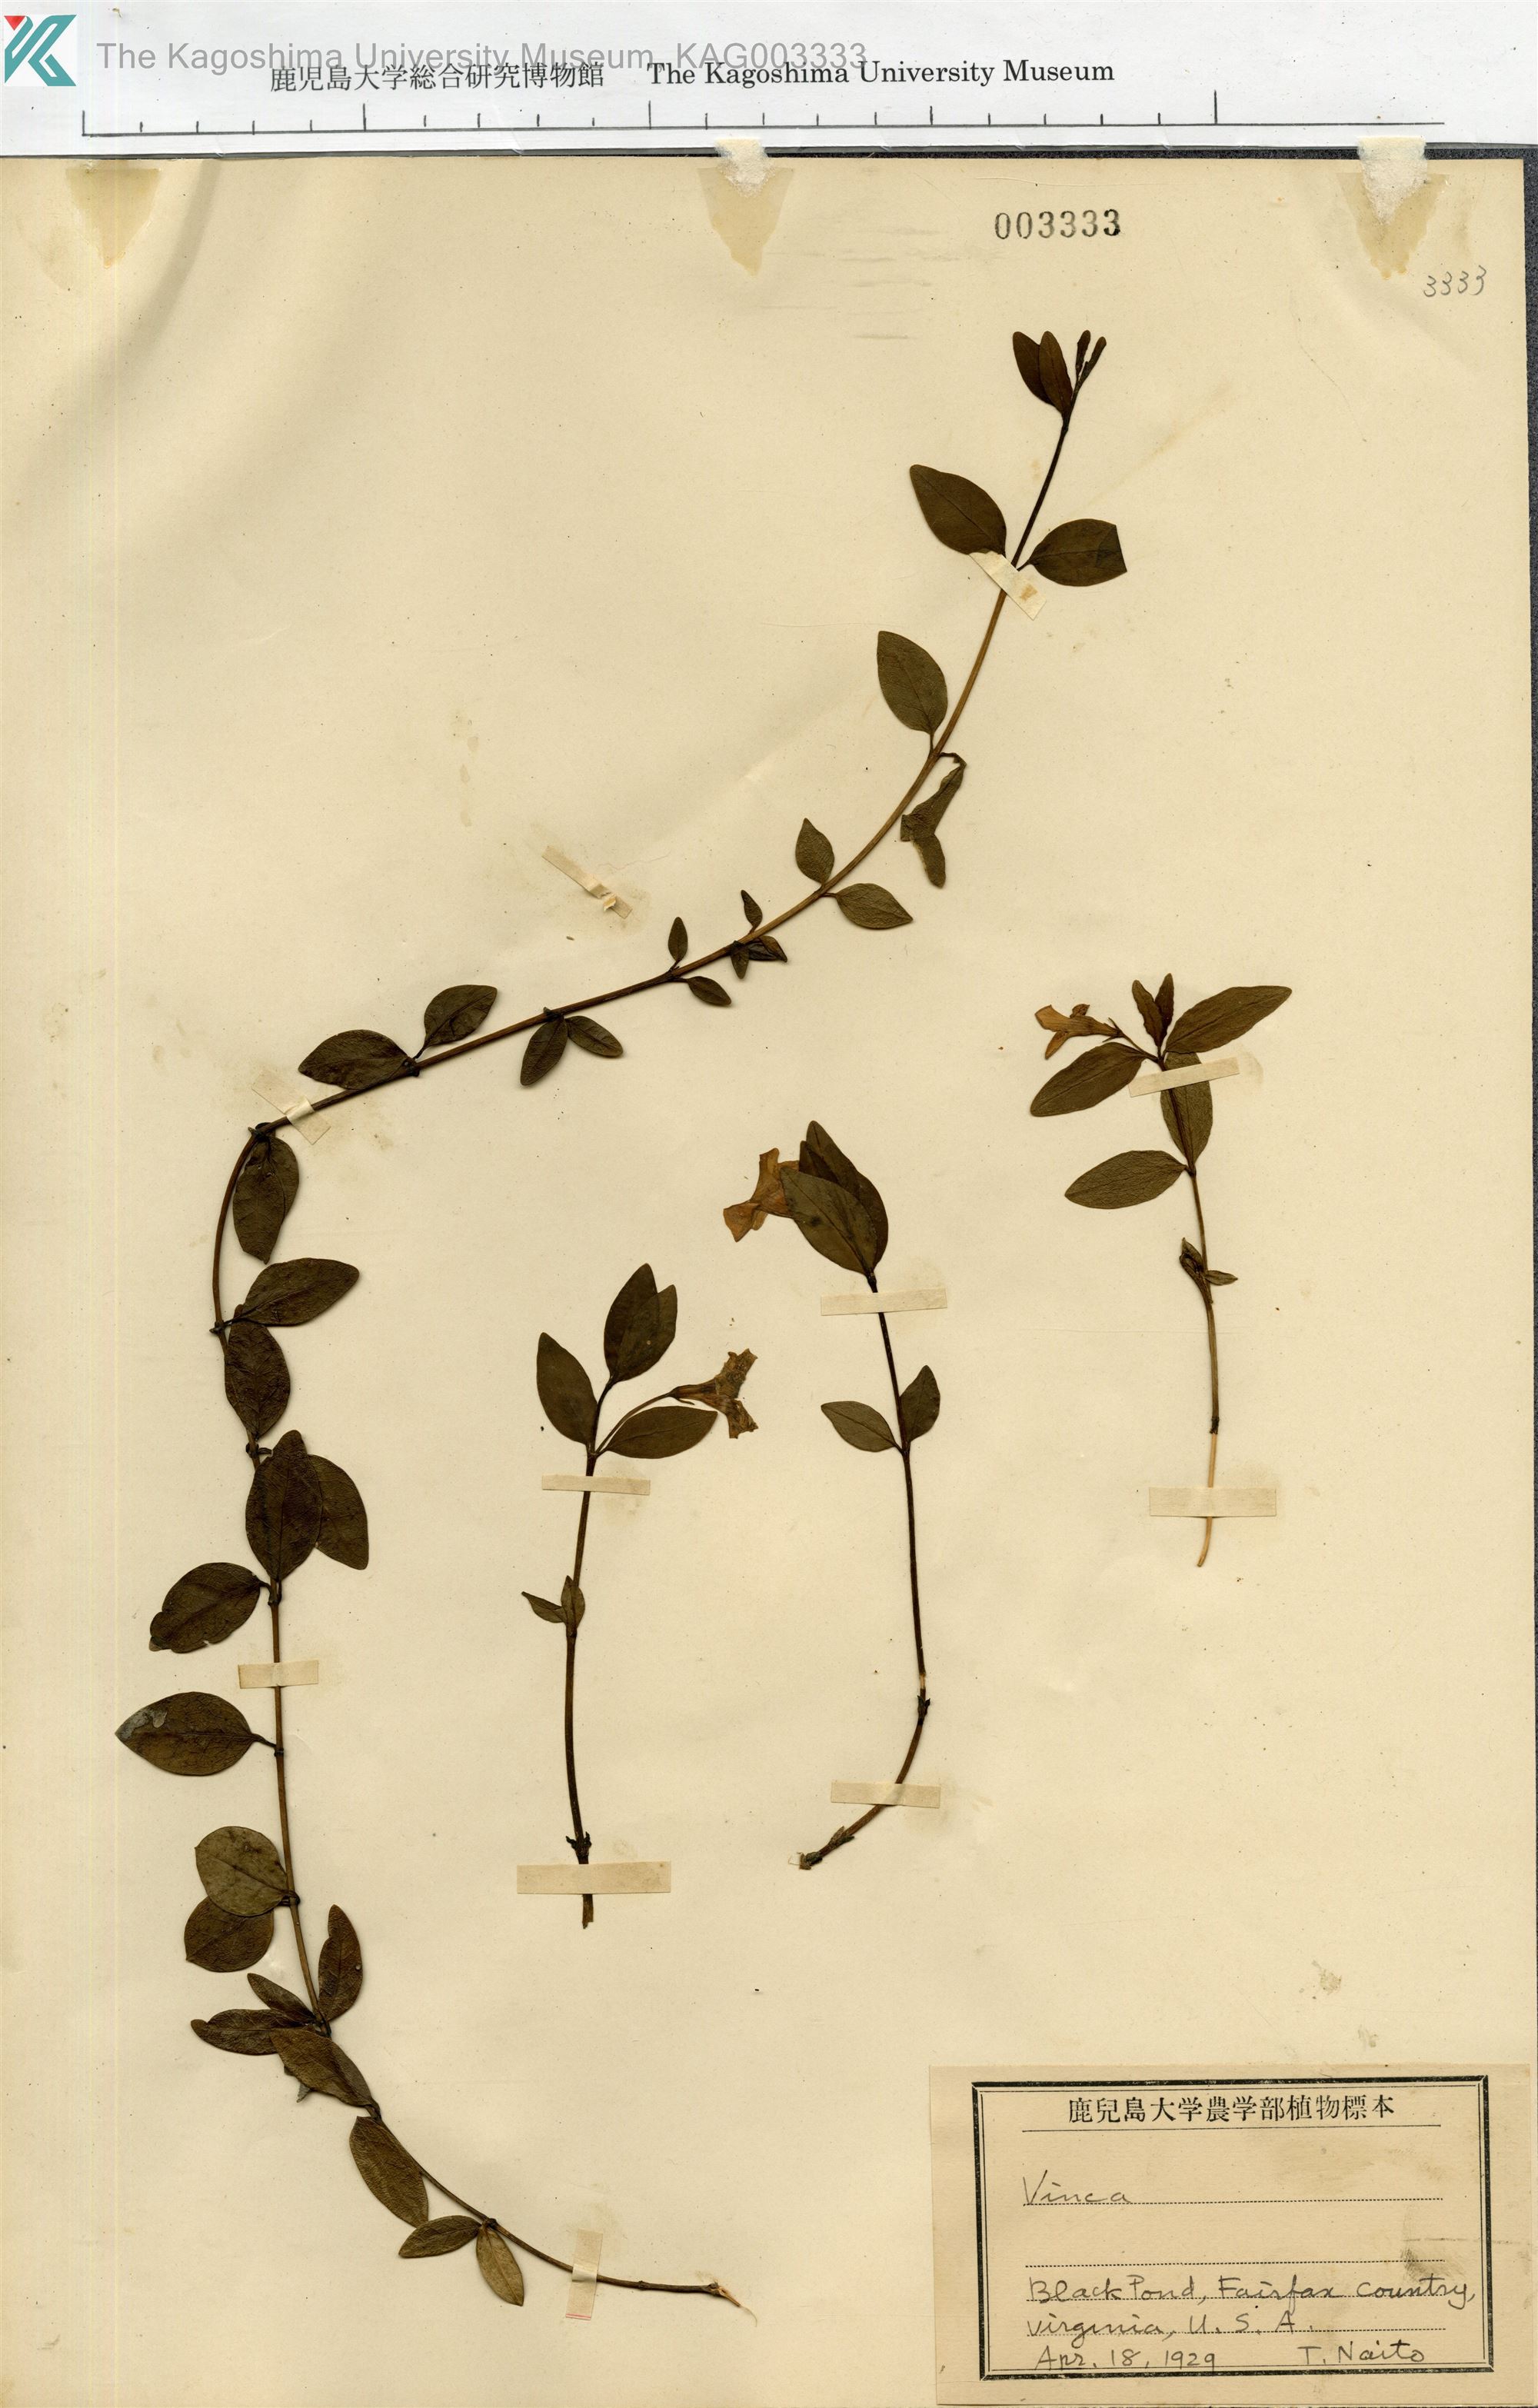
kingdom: Plantae
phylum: Tracheophyta
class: Magnoliopsida
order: Gentianales
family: Apocynaceae
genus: Vinca
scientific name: Vinca minor
